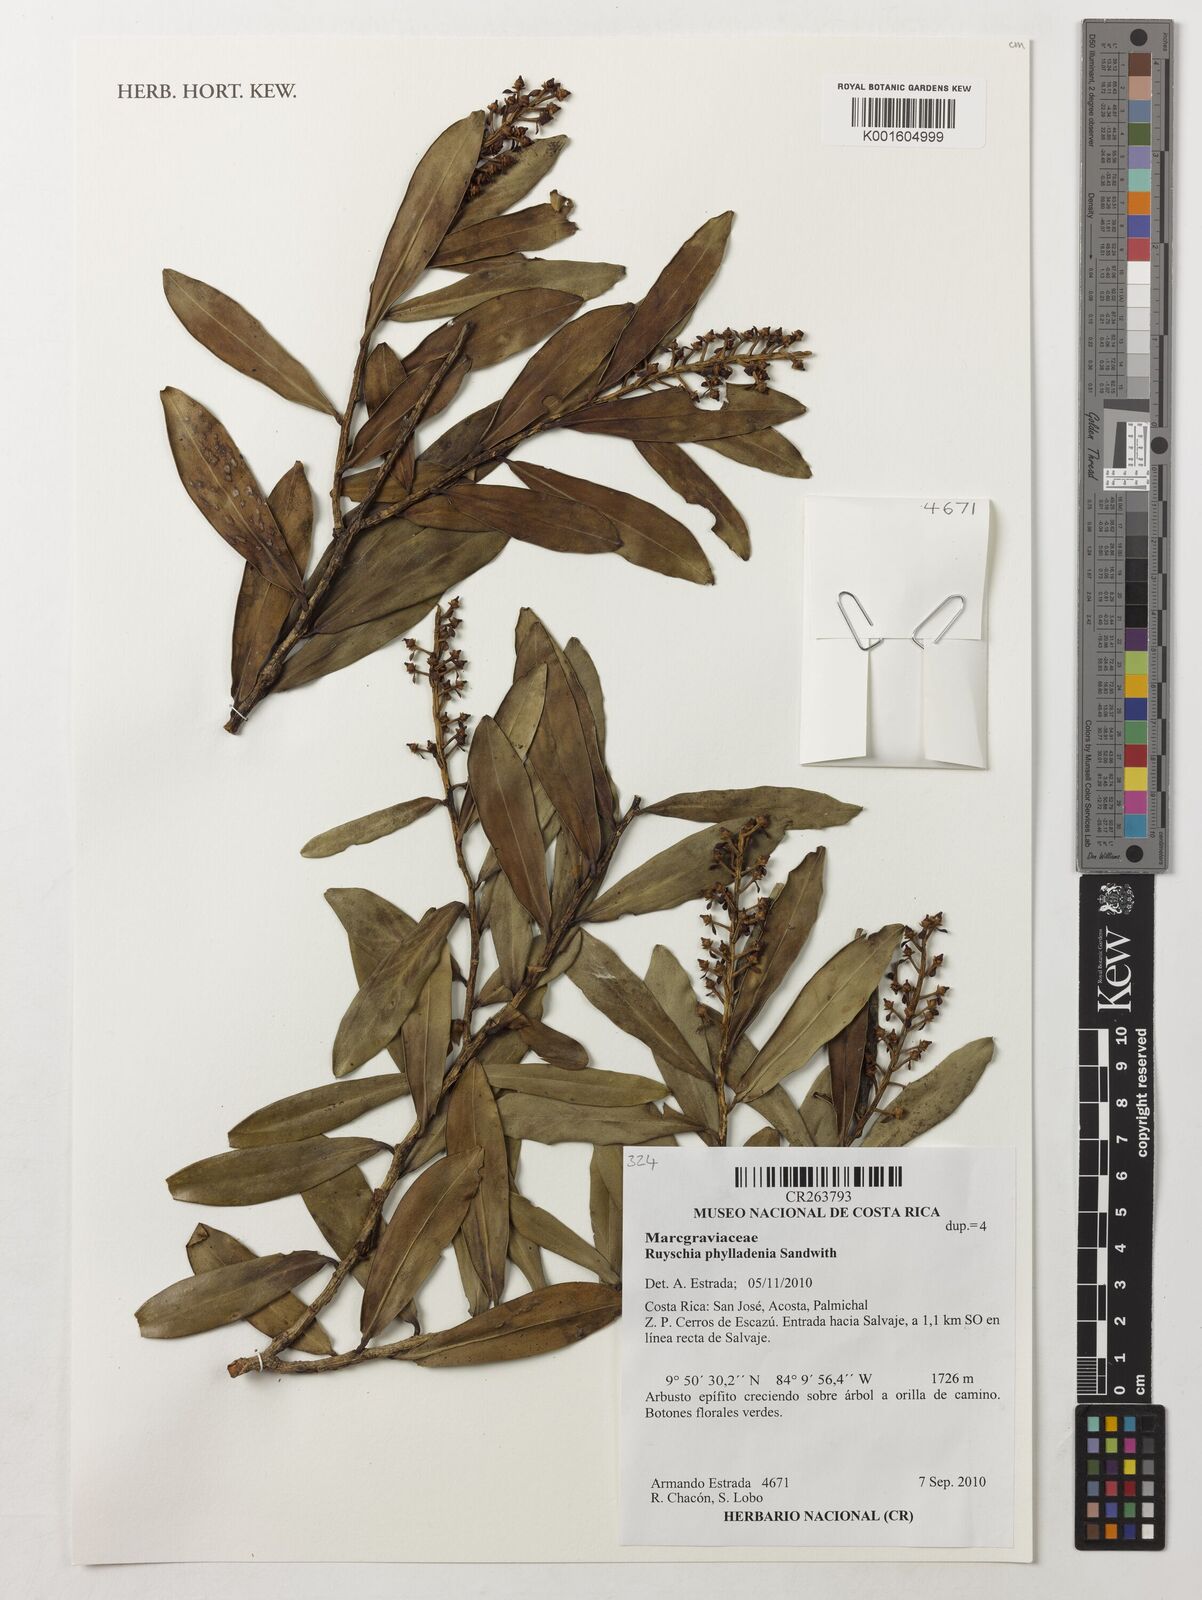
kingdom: Plantae
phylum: Tracheophyta
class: Magnoliopsida
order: Ericales
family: Marcgraviaceae
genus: Ruyschia
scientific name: Ruyschia phylladenia
